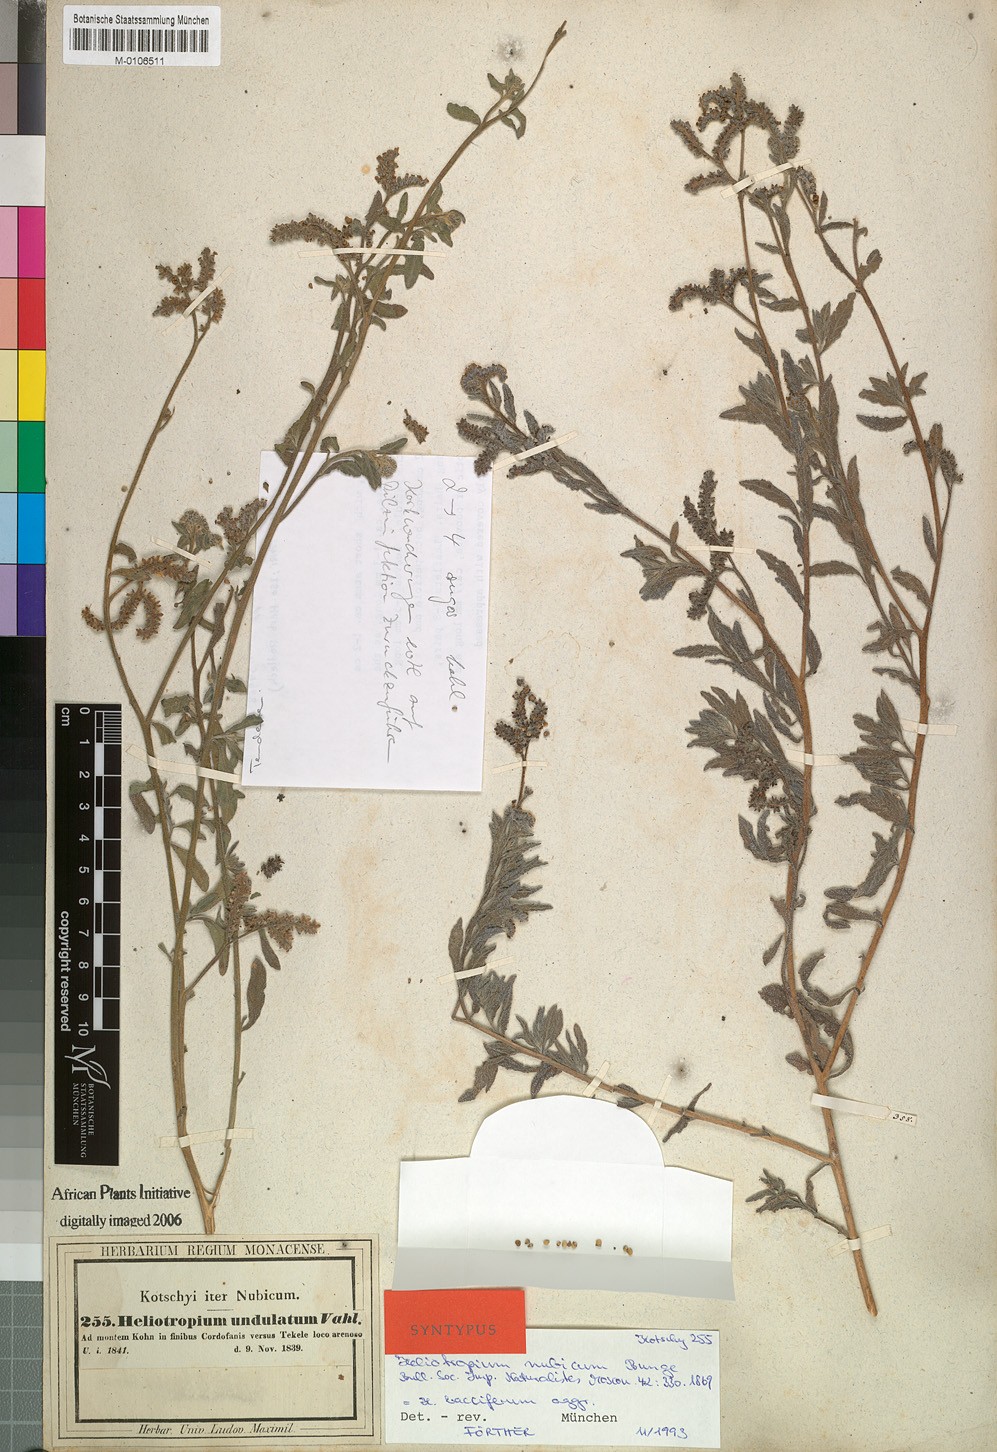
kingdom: Plantae
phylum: Tracheophyta
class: Magnoliopsida
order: Boraginales
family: Heliotropiaceae
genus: Heliotropium
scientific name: Heliotropium bacciferum
